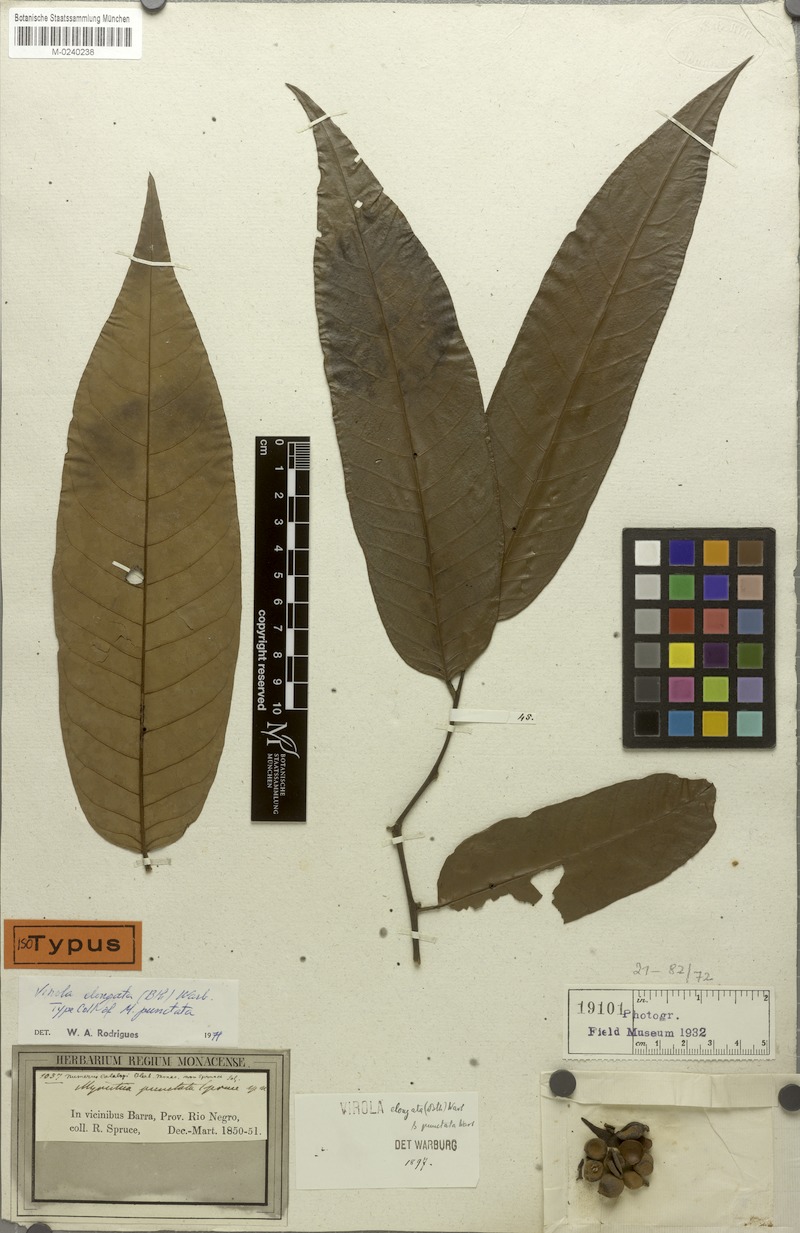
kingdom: Plantae
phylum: Tracheophyta
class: Magnoliopsida
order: Magnoliales
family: Myristicaceae
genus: Virola
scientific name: Virola elongata
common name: Sacred virola
